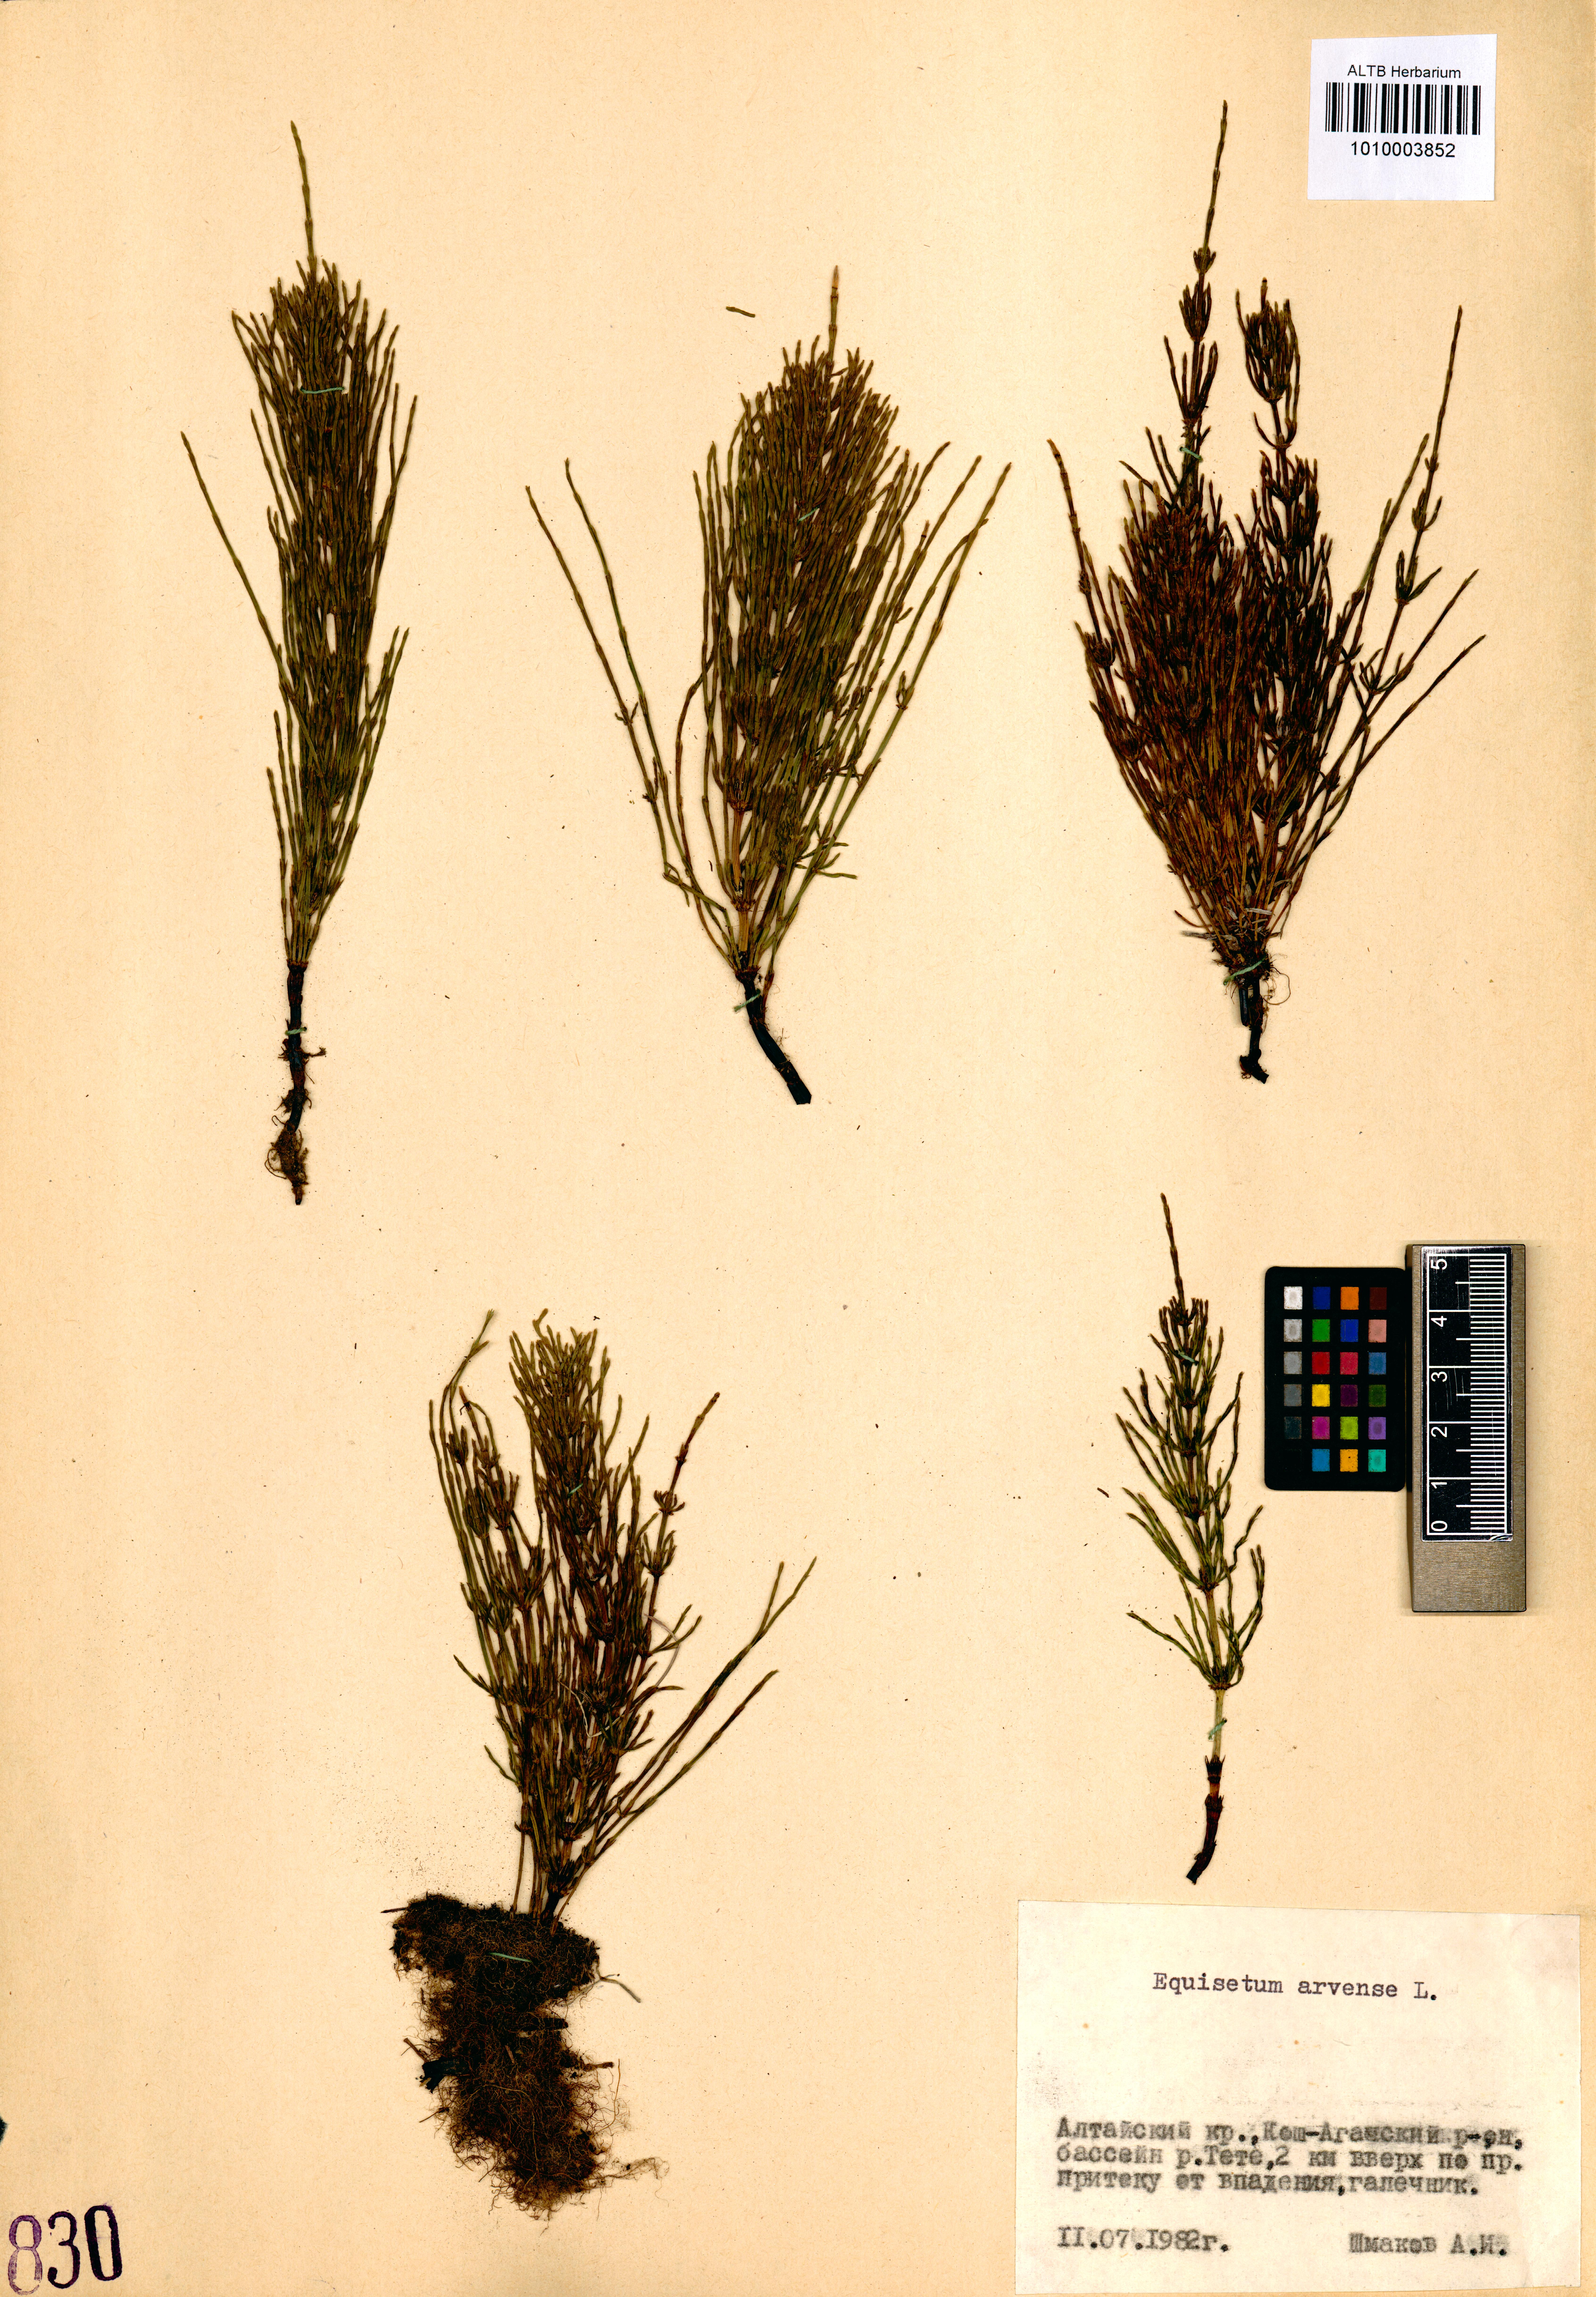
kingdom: Plantae
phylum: Tracheophyta
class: Polypodiopsida
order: Equisetales
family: Equisetaceae
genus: Equisetum
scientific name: Equisetum arvense
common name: Field horsetail
